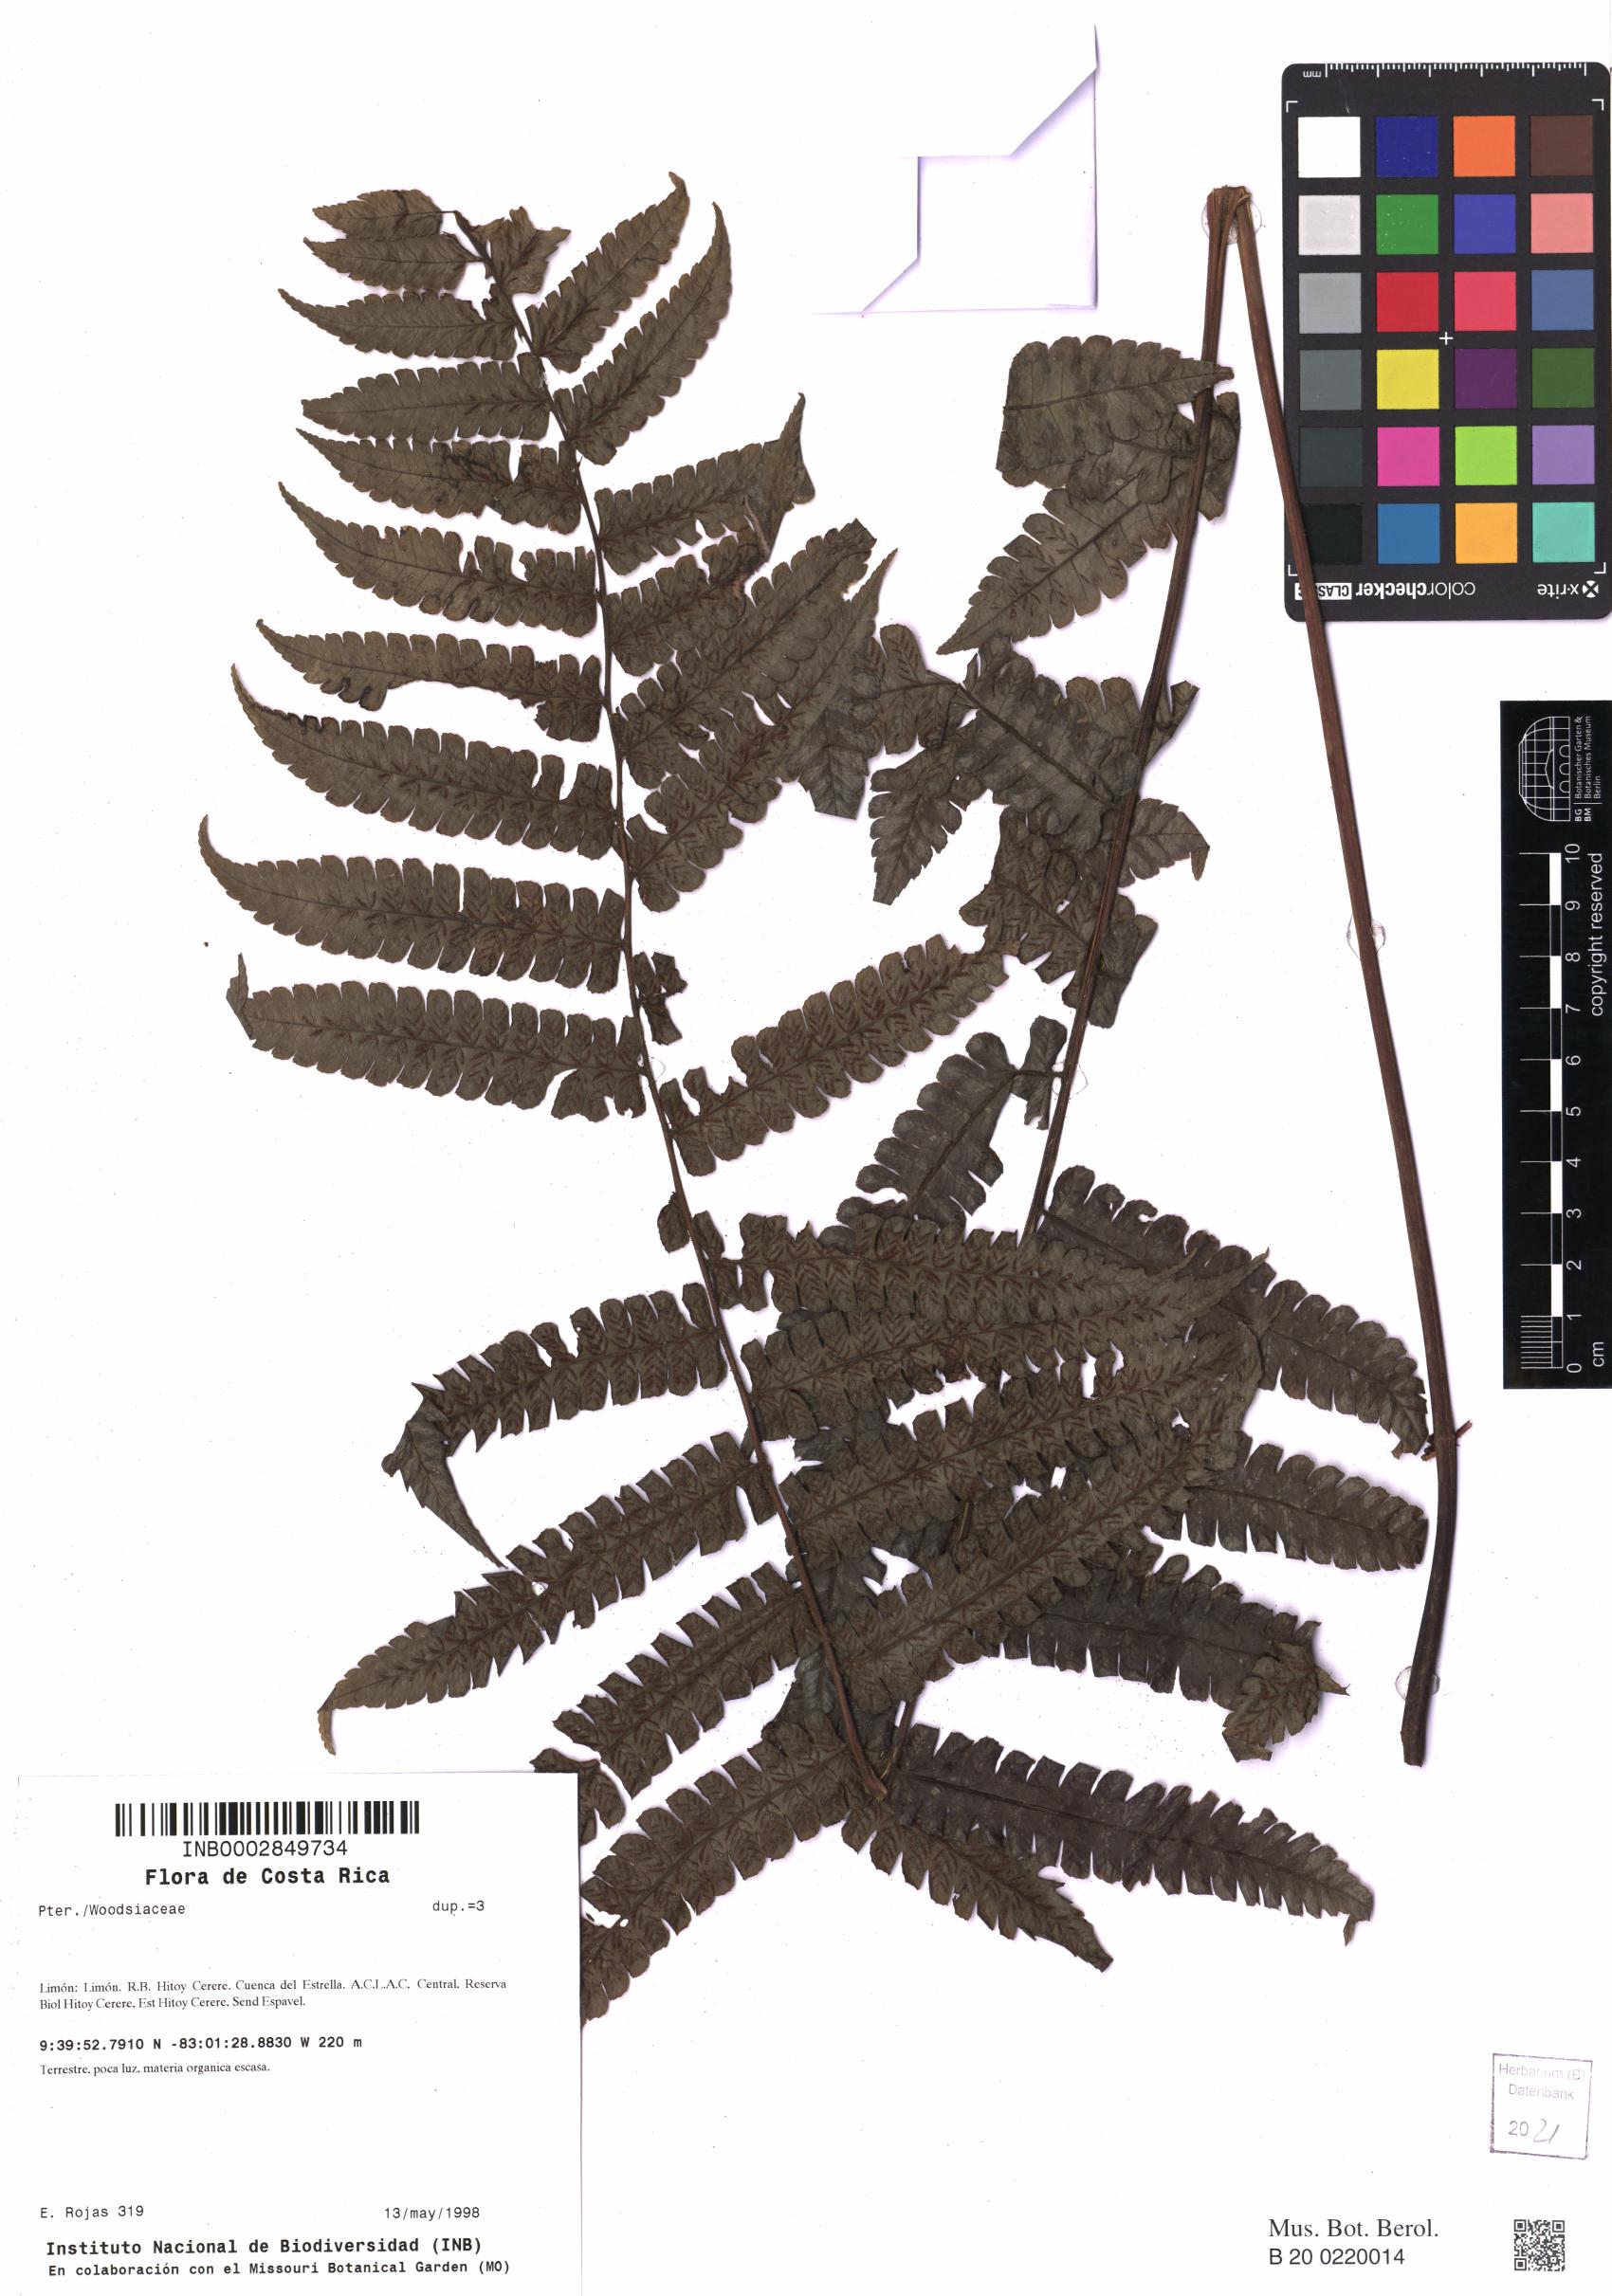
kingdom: Plantae
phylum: Tracheophyta
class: Polypodiopsida
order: Polypodiales
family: Athyriaceae
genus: Diplazium
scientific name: Diplazium cristatum
